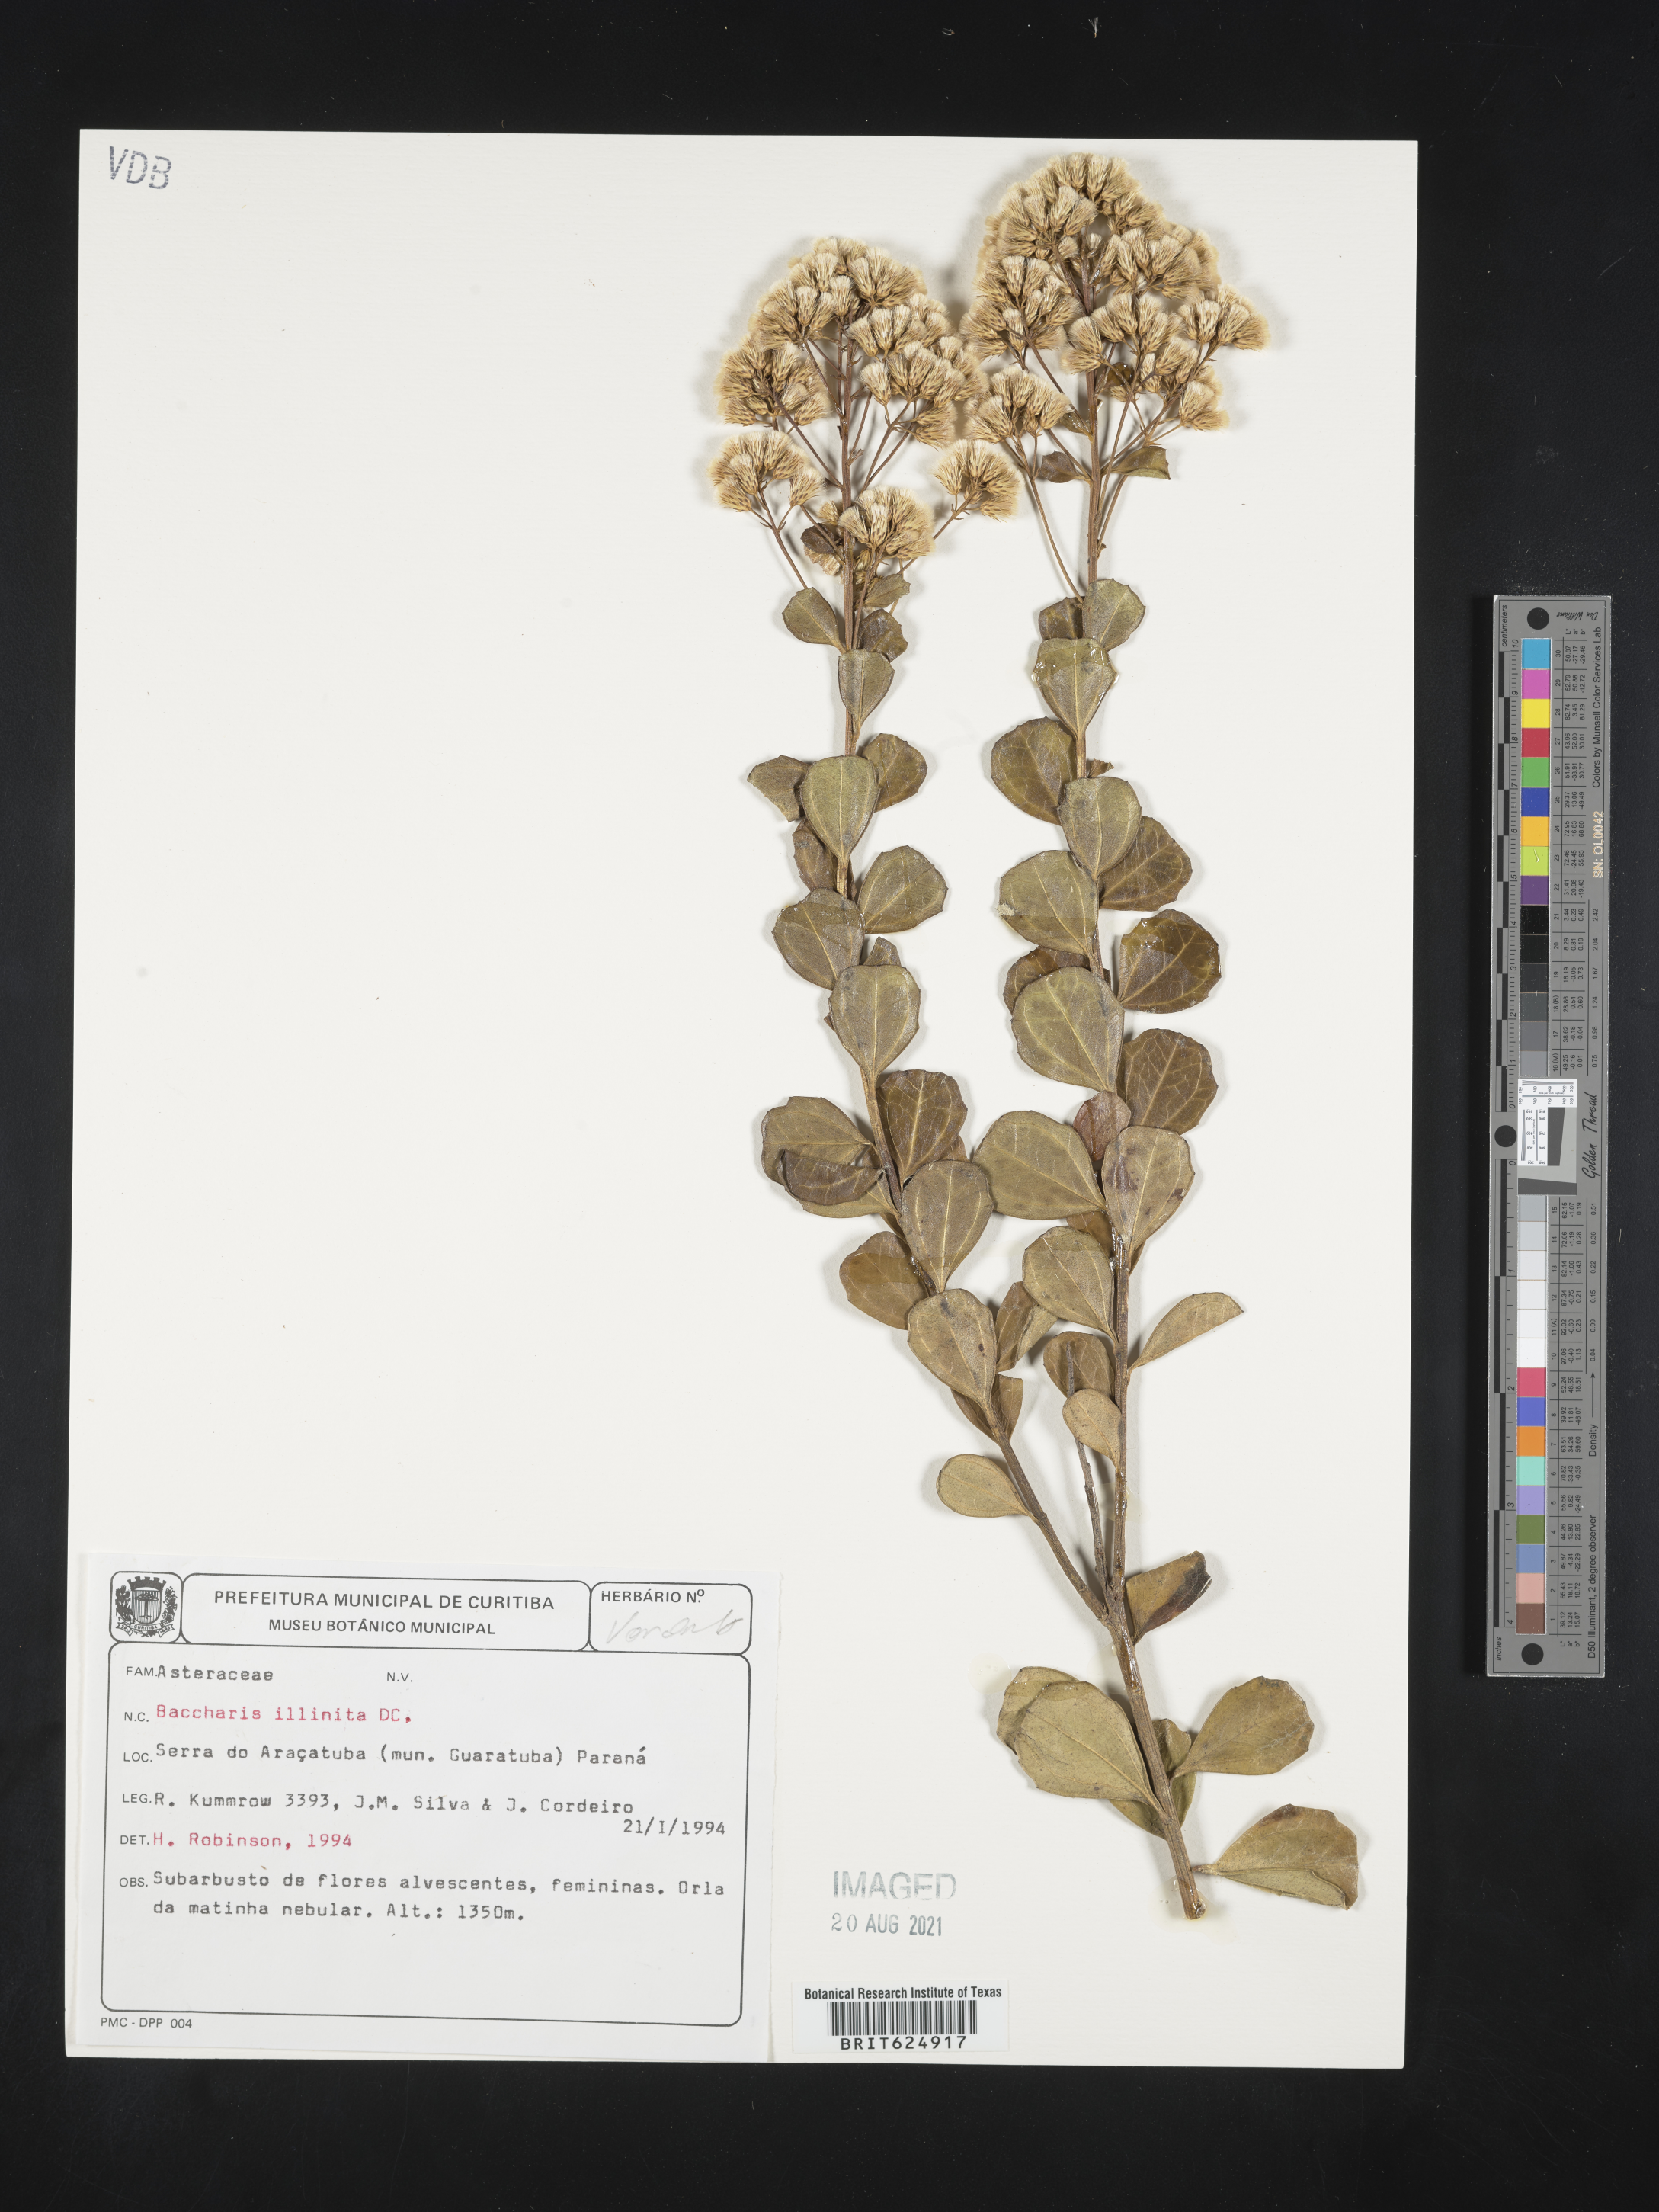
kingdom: Plantae
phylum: Tracheophyta
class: Magnoliopsida
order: Asterales
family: Asteraceae
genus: Baccharis
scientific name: Baccharis tridentata
